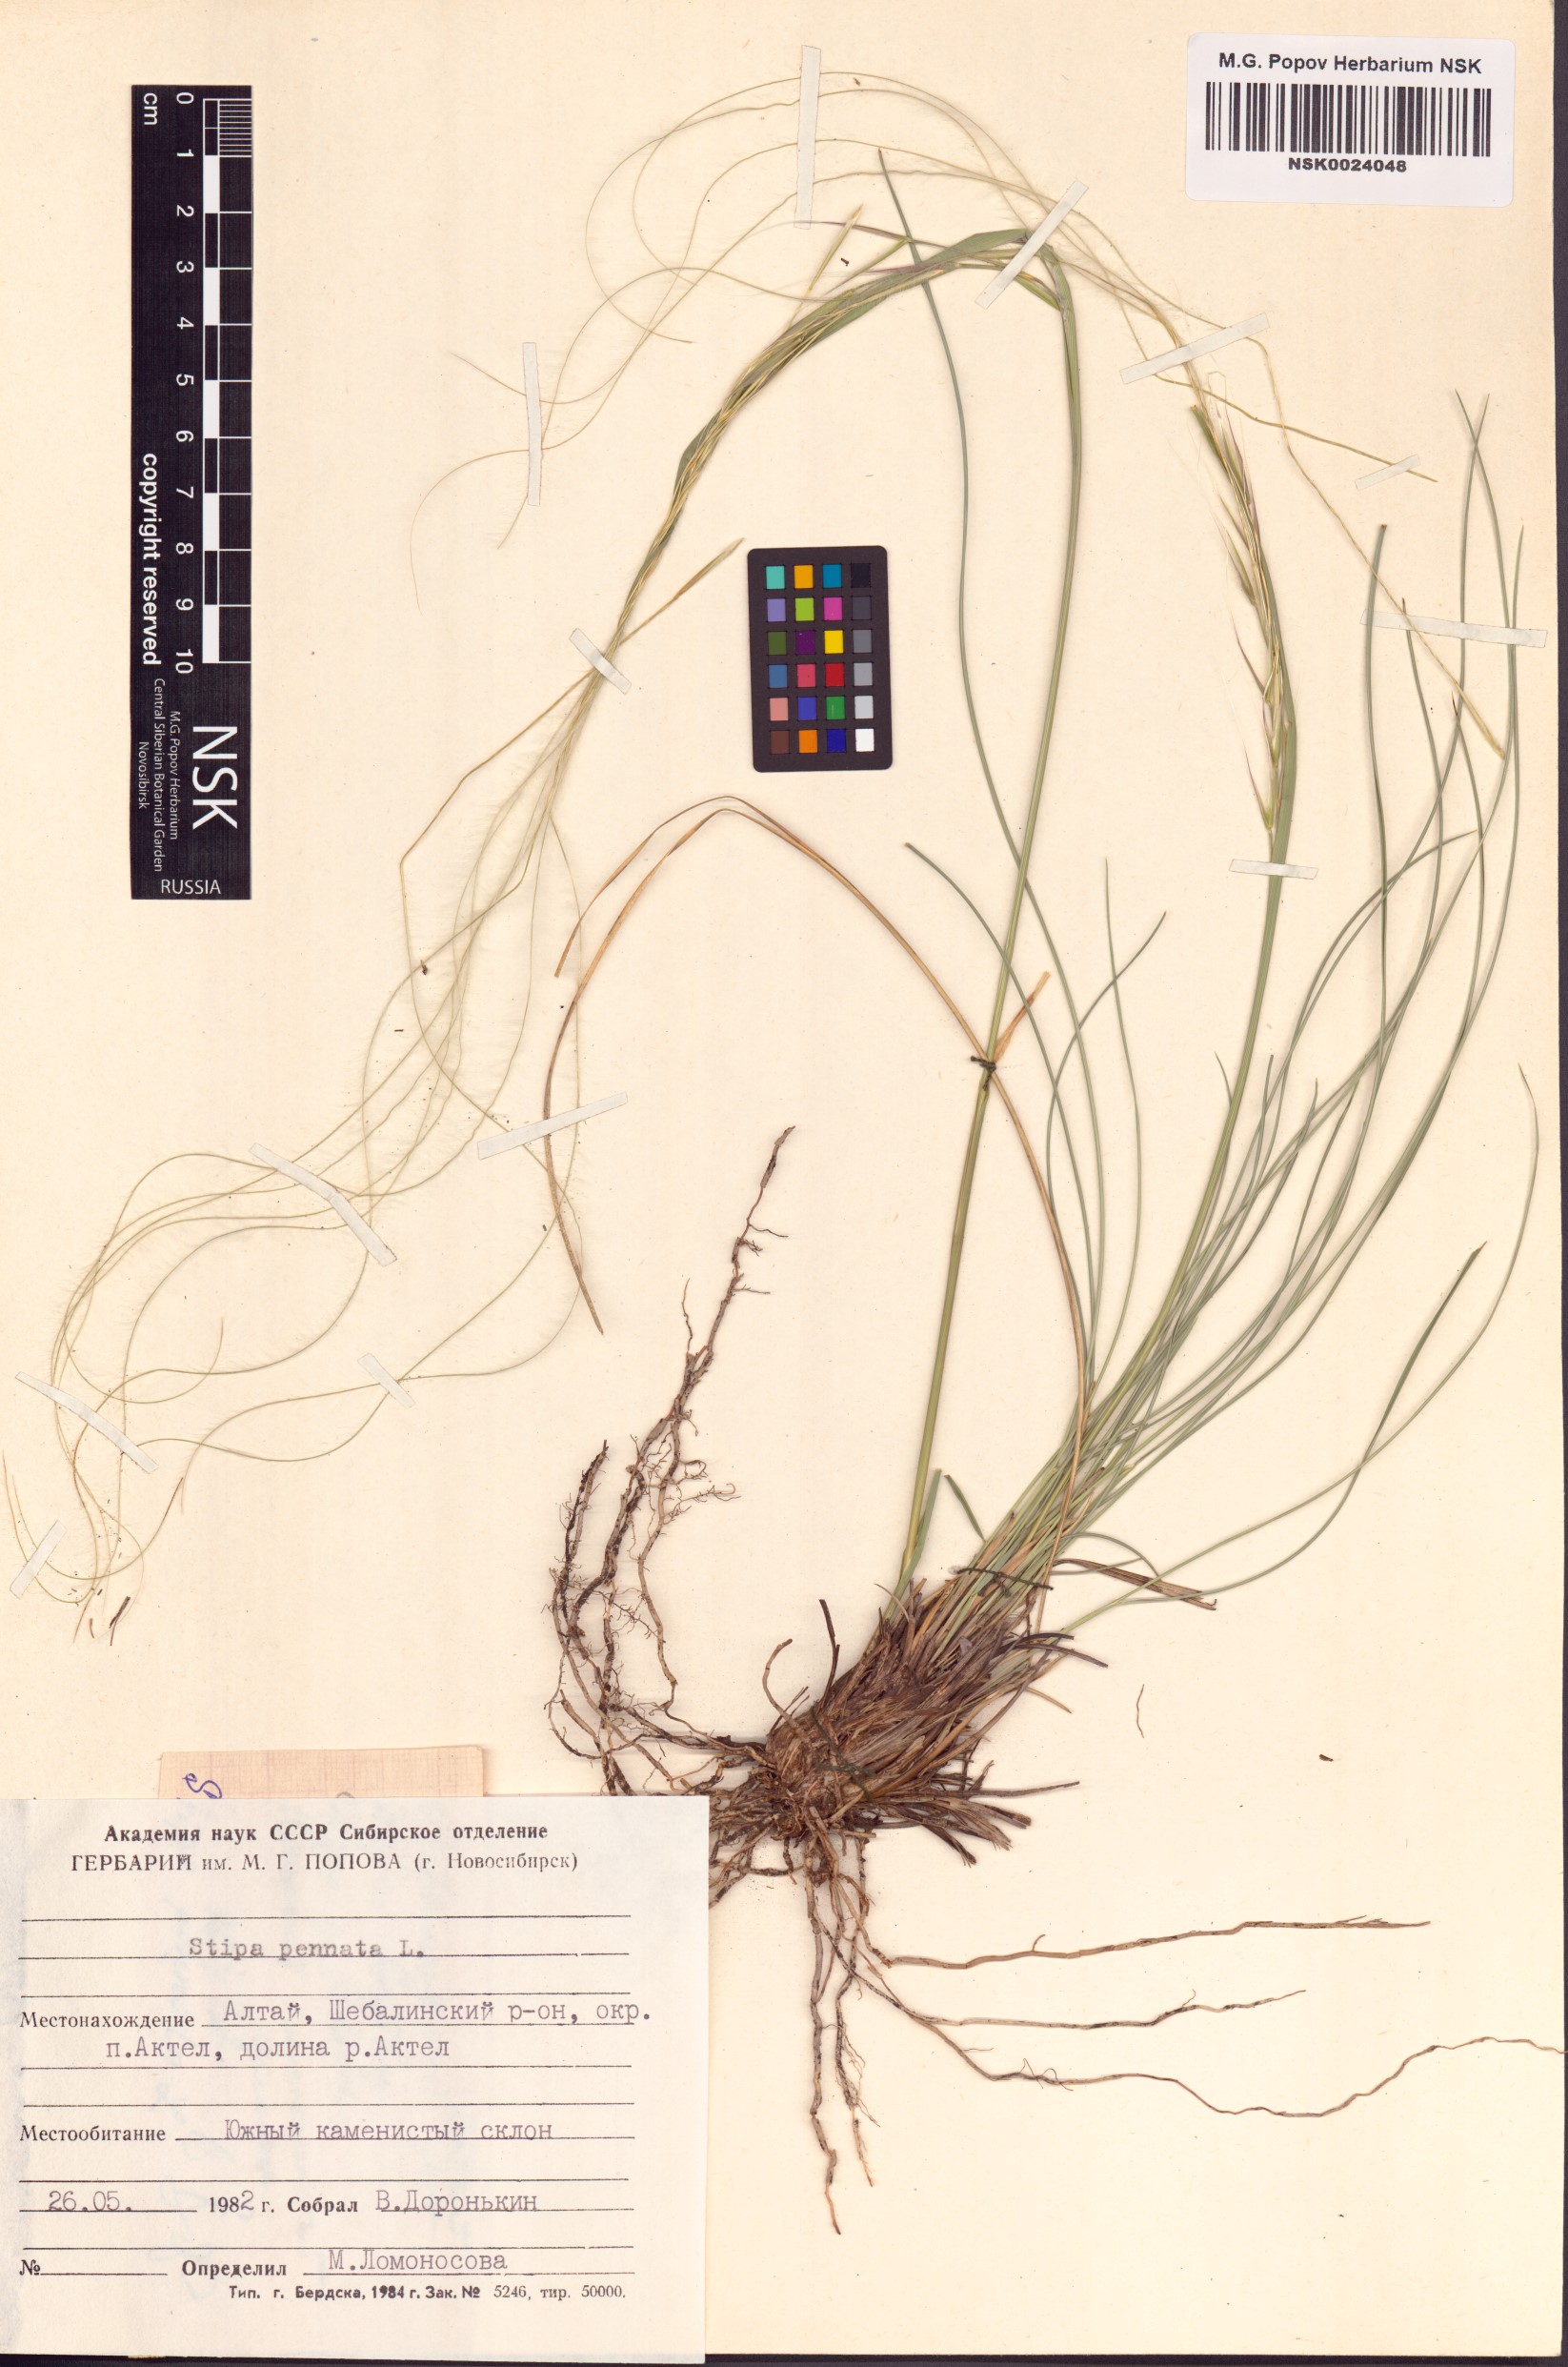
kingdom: Plantae
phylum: Tracheophyta
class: Liliopsida
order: Poales
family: Poaceae
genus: Stipa
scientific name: Stipa pennata
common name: European feather grass
